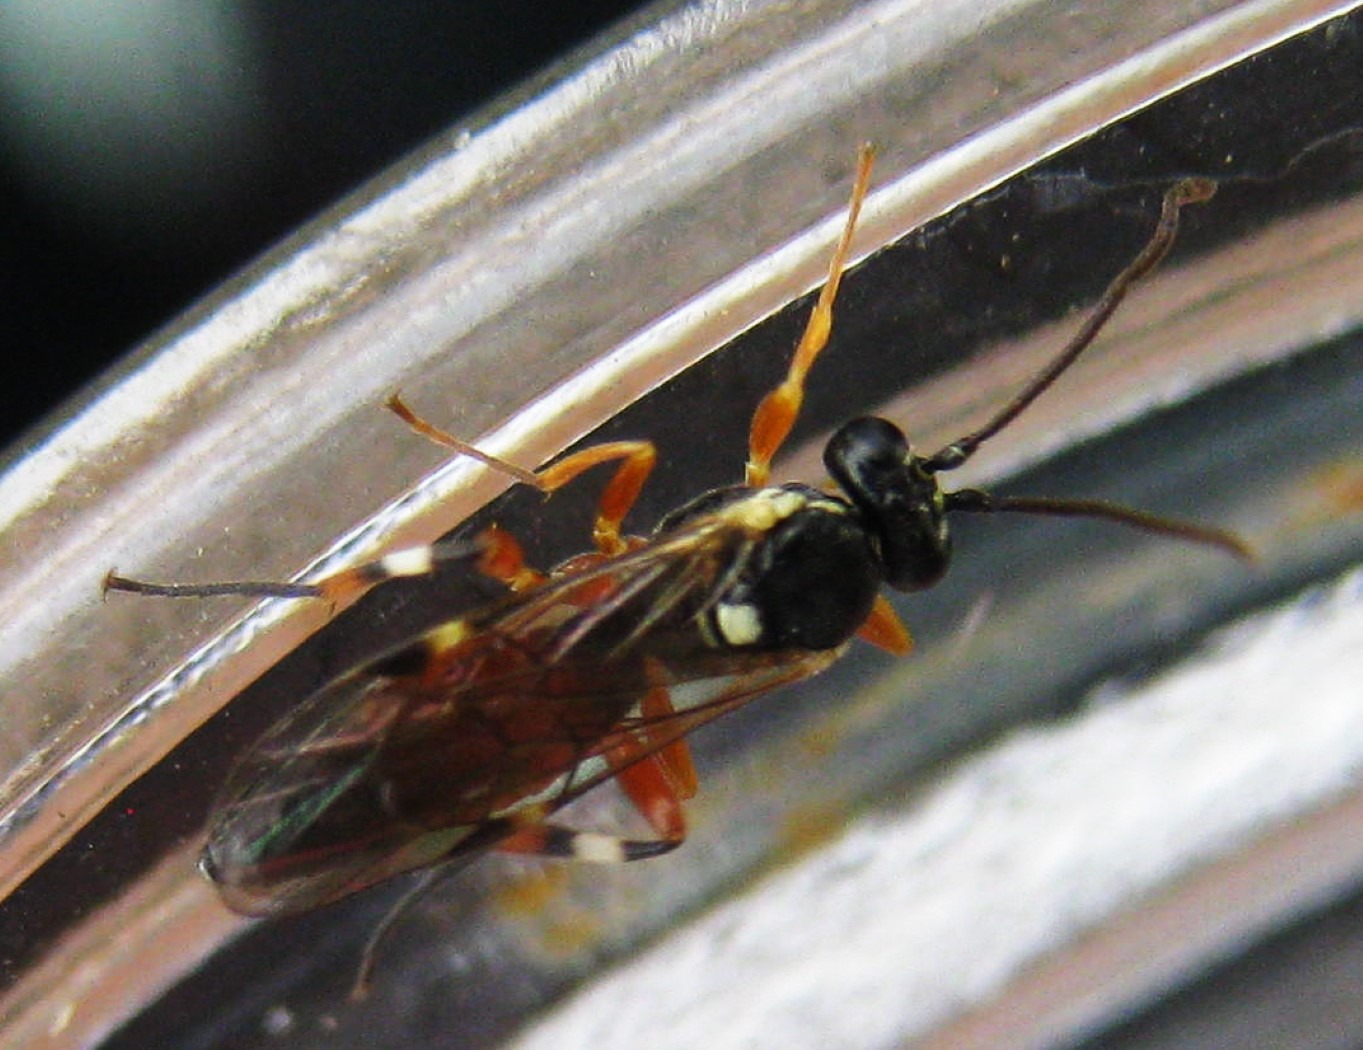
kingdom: Animalia
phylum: Arthropoda
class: Insecta
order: Hymenoptera
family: Ichneumonidae
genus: Diplazon
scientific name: Diplazon laetatorius
